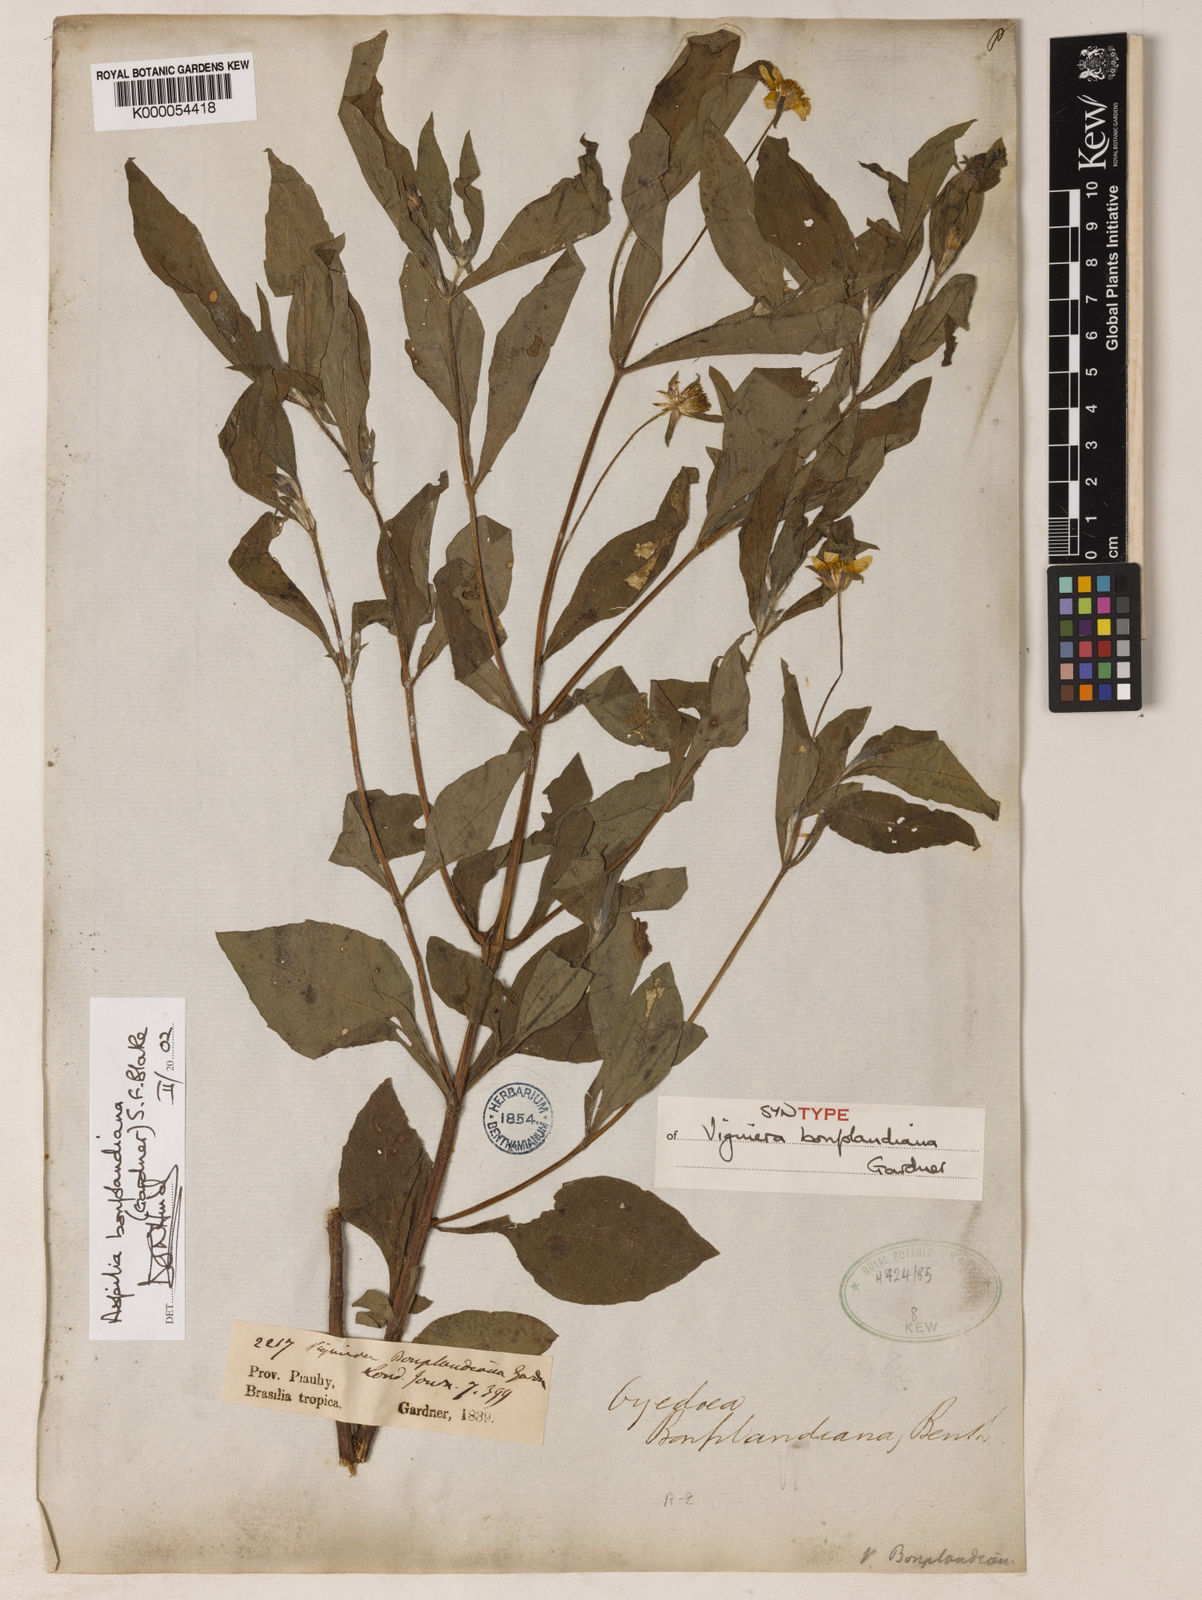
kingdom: Plantae
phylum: Tracheophyta
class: Magnoliopsida
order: Asterales
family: Asteraceae
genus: Wedelia
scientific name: Wedelia bonplandiana
